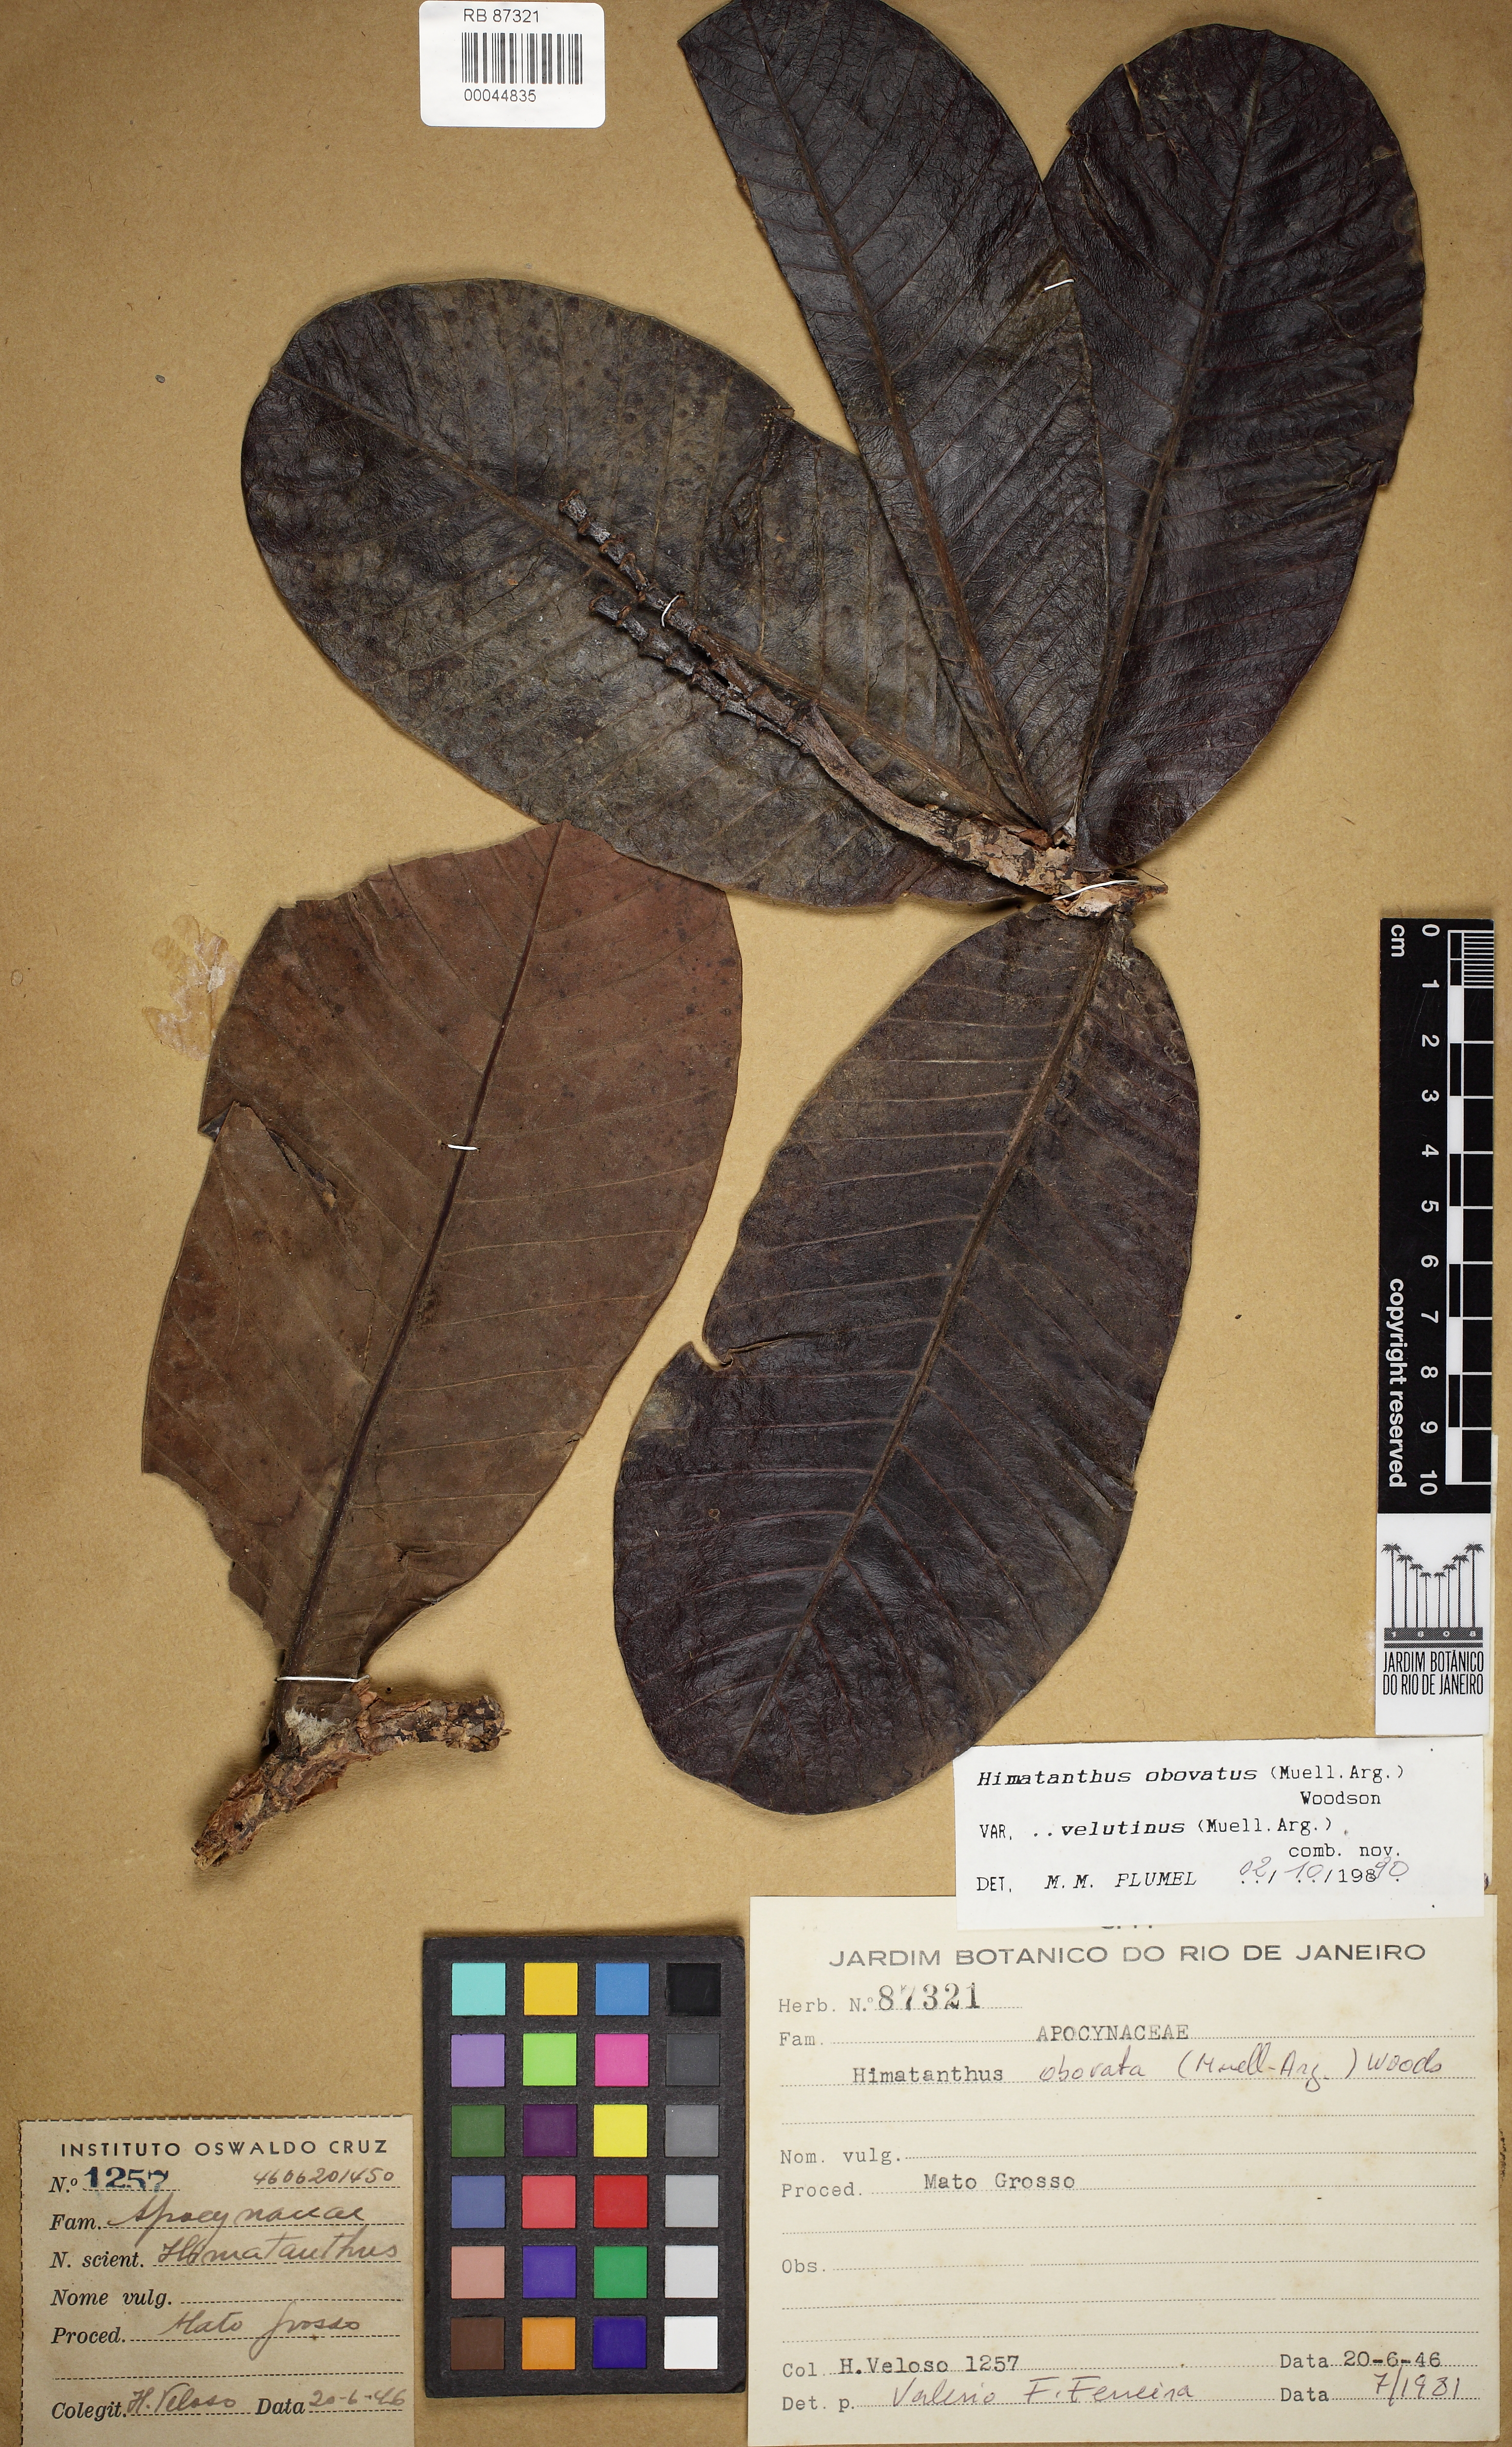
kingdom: Plantae
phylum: Tracheophyta
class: Magnoliopsida
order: Gentianales
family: Apocynaceae
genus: Himatanthus
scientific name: Himatanthus obovatus
